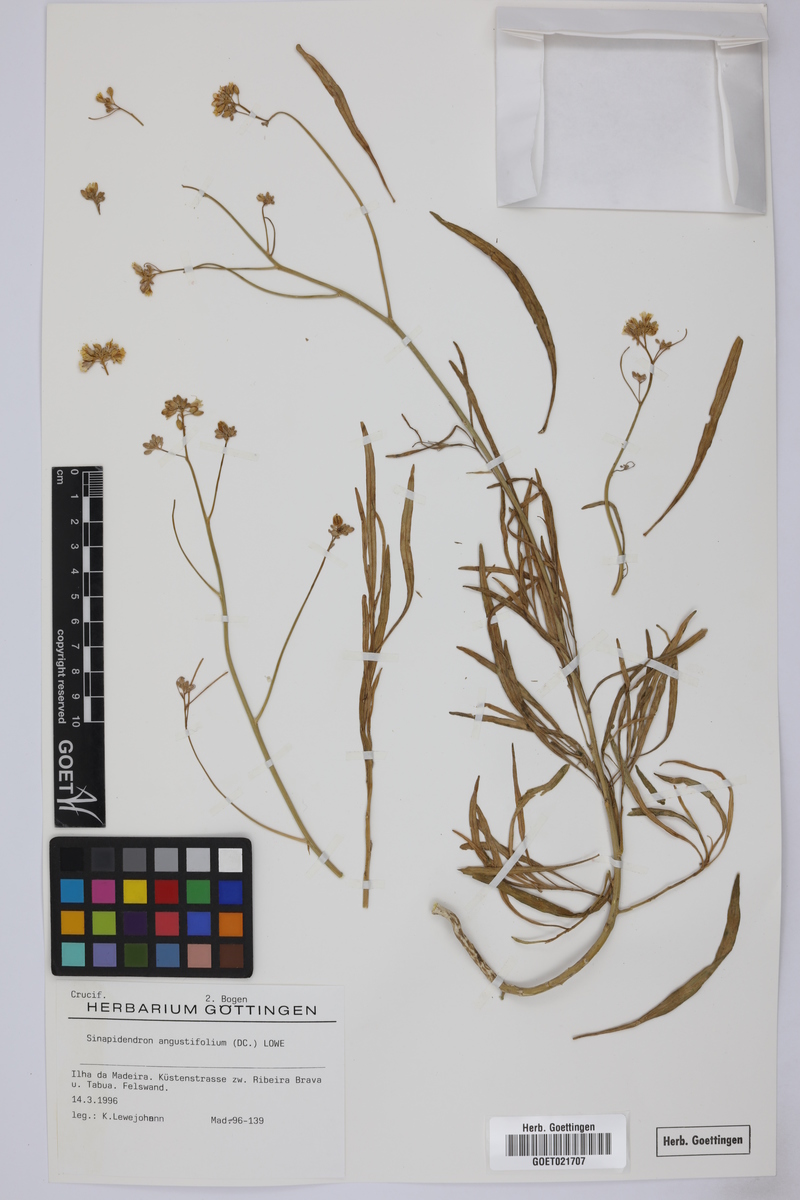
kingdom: Plantae
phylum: Tracheophyta
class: Magnoliopsida
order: Brassicales
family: Brassicaceae
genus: Sinapidendron
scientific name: Sinapidendron angustifolium
